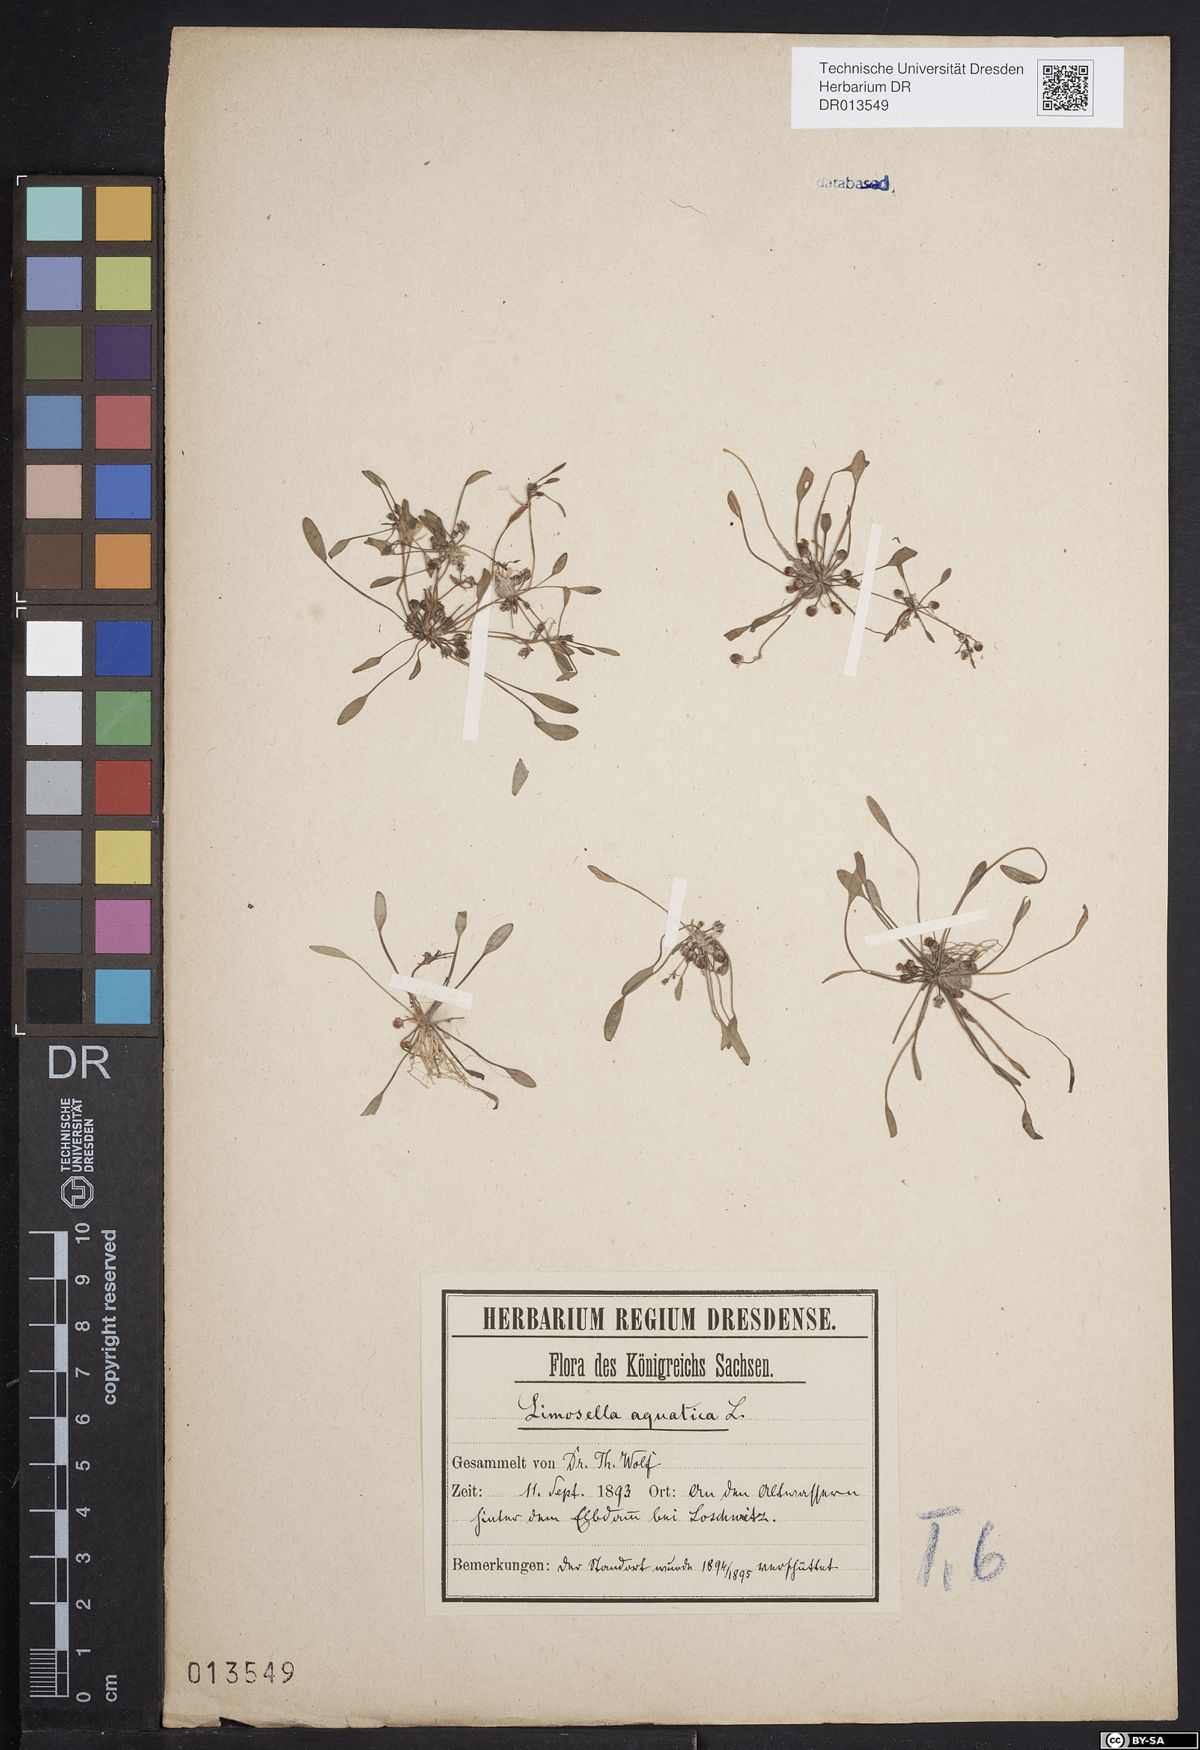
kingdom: Plantae
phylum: Tracheophyta
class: Magnoliopsida
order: Lamiales
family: Scrophulariaceae
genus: Limosella
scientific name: Limosella aquatica
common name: Mudwort
